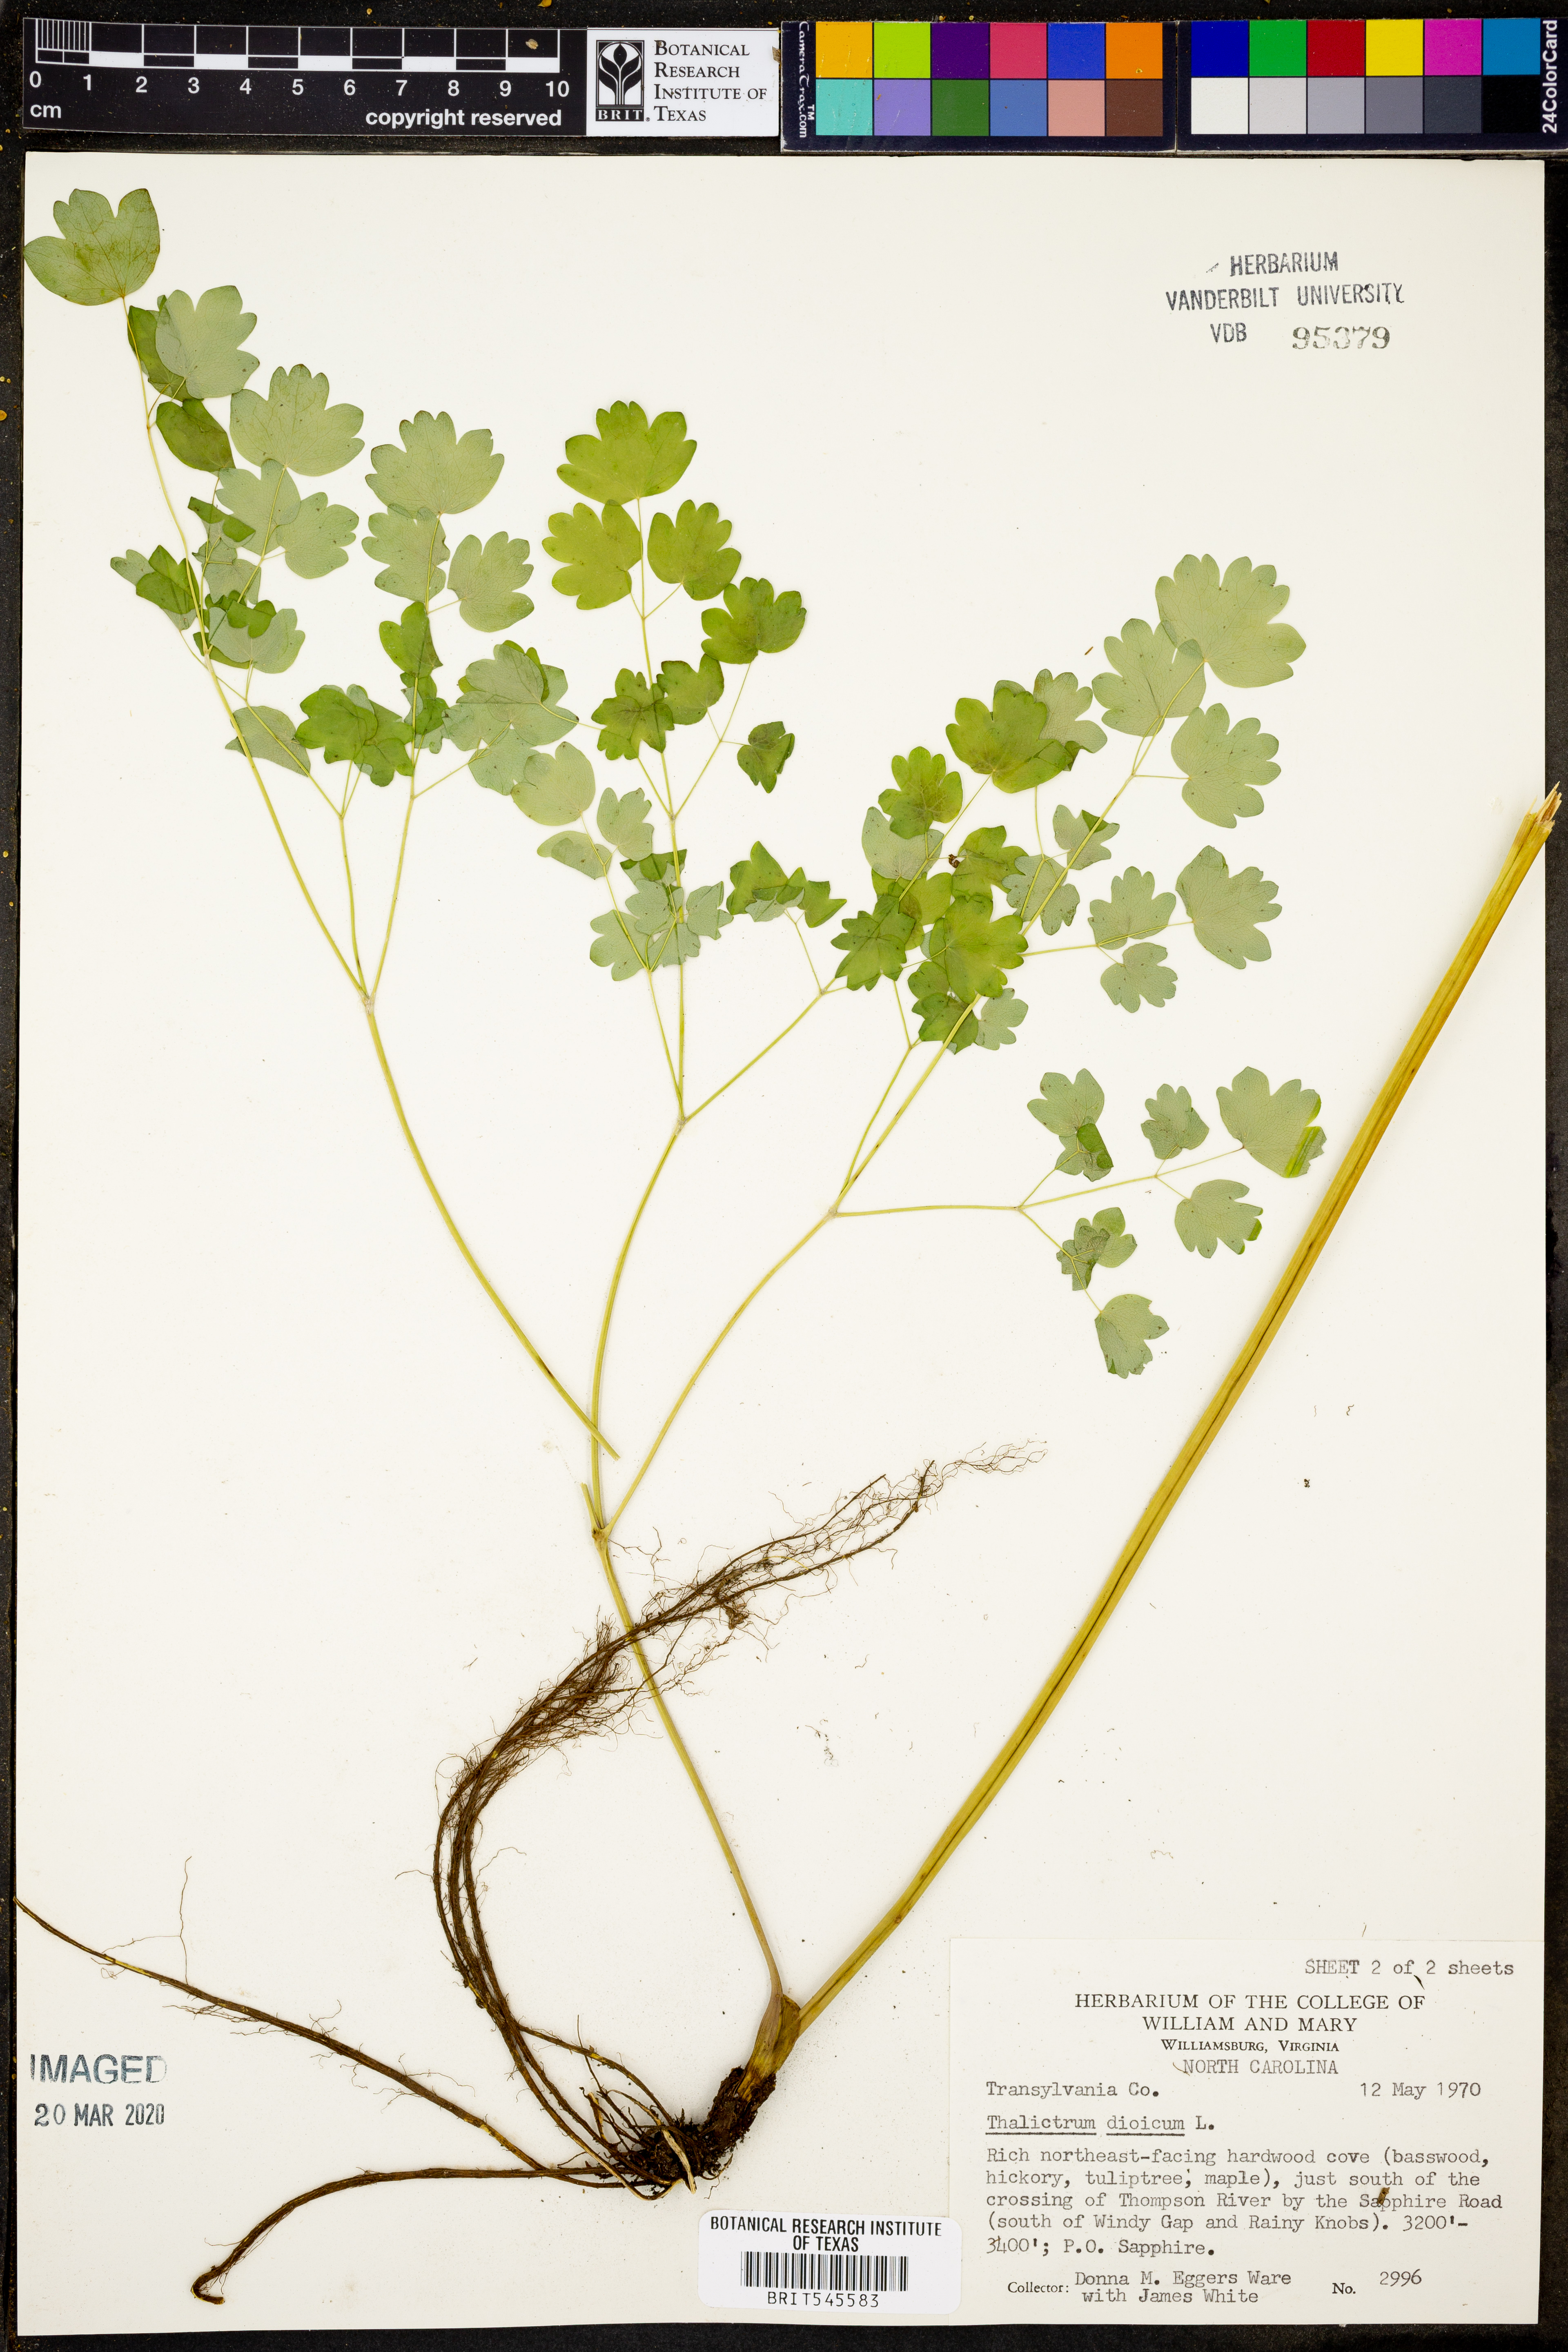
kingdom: Plantae
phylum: Tracheophyta
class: Magnoliopsida
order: Ranunculales
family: Ranunculaceae
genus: Thalictrum
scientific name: Thalictrum dioicum
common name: Early meadow-rue
